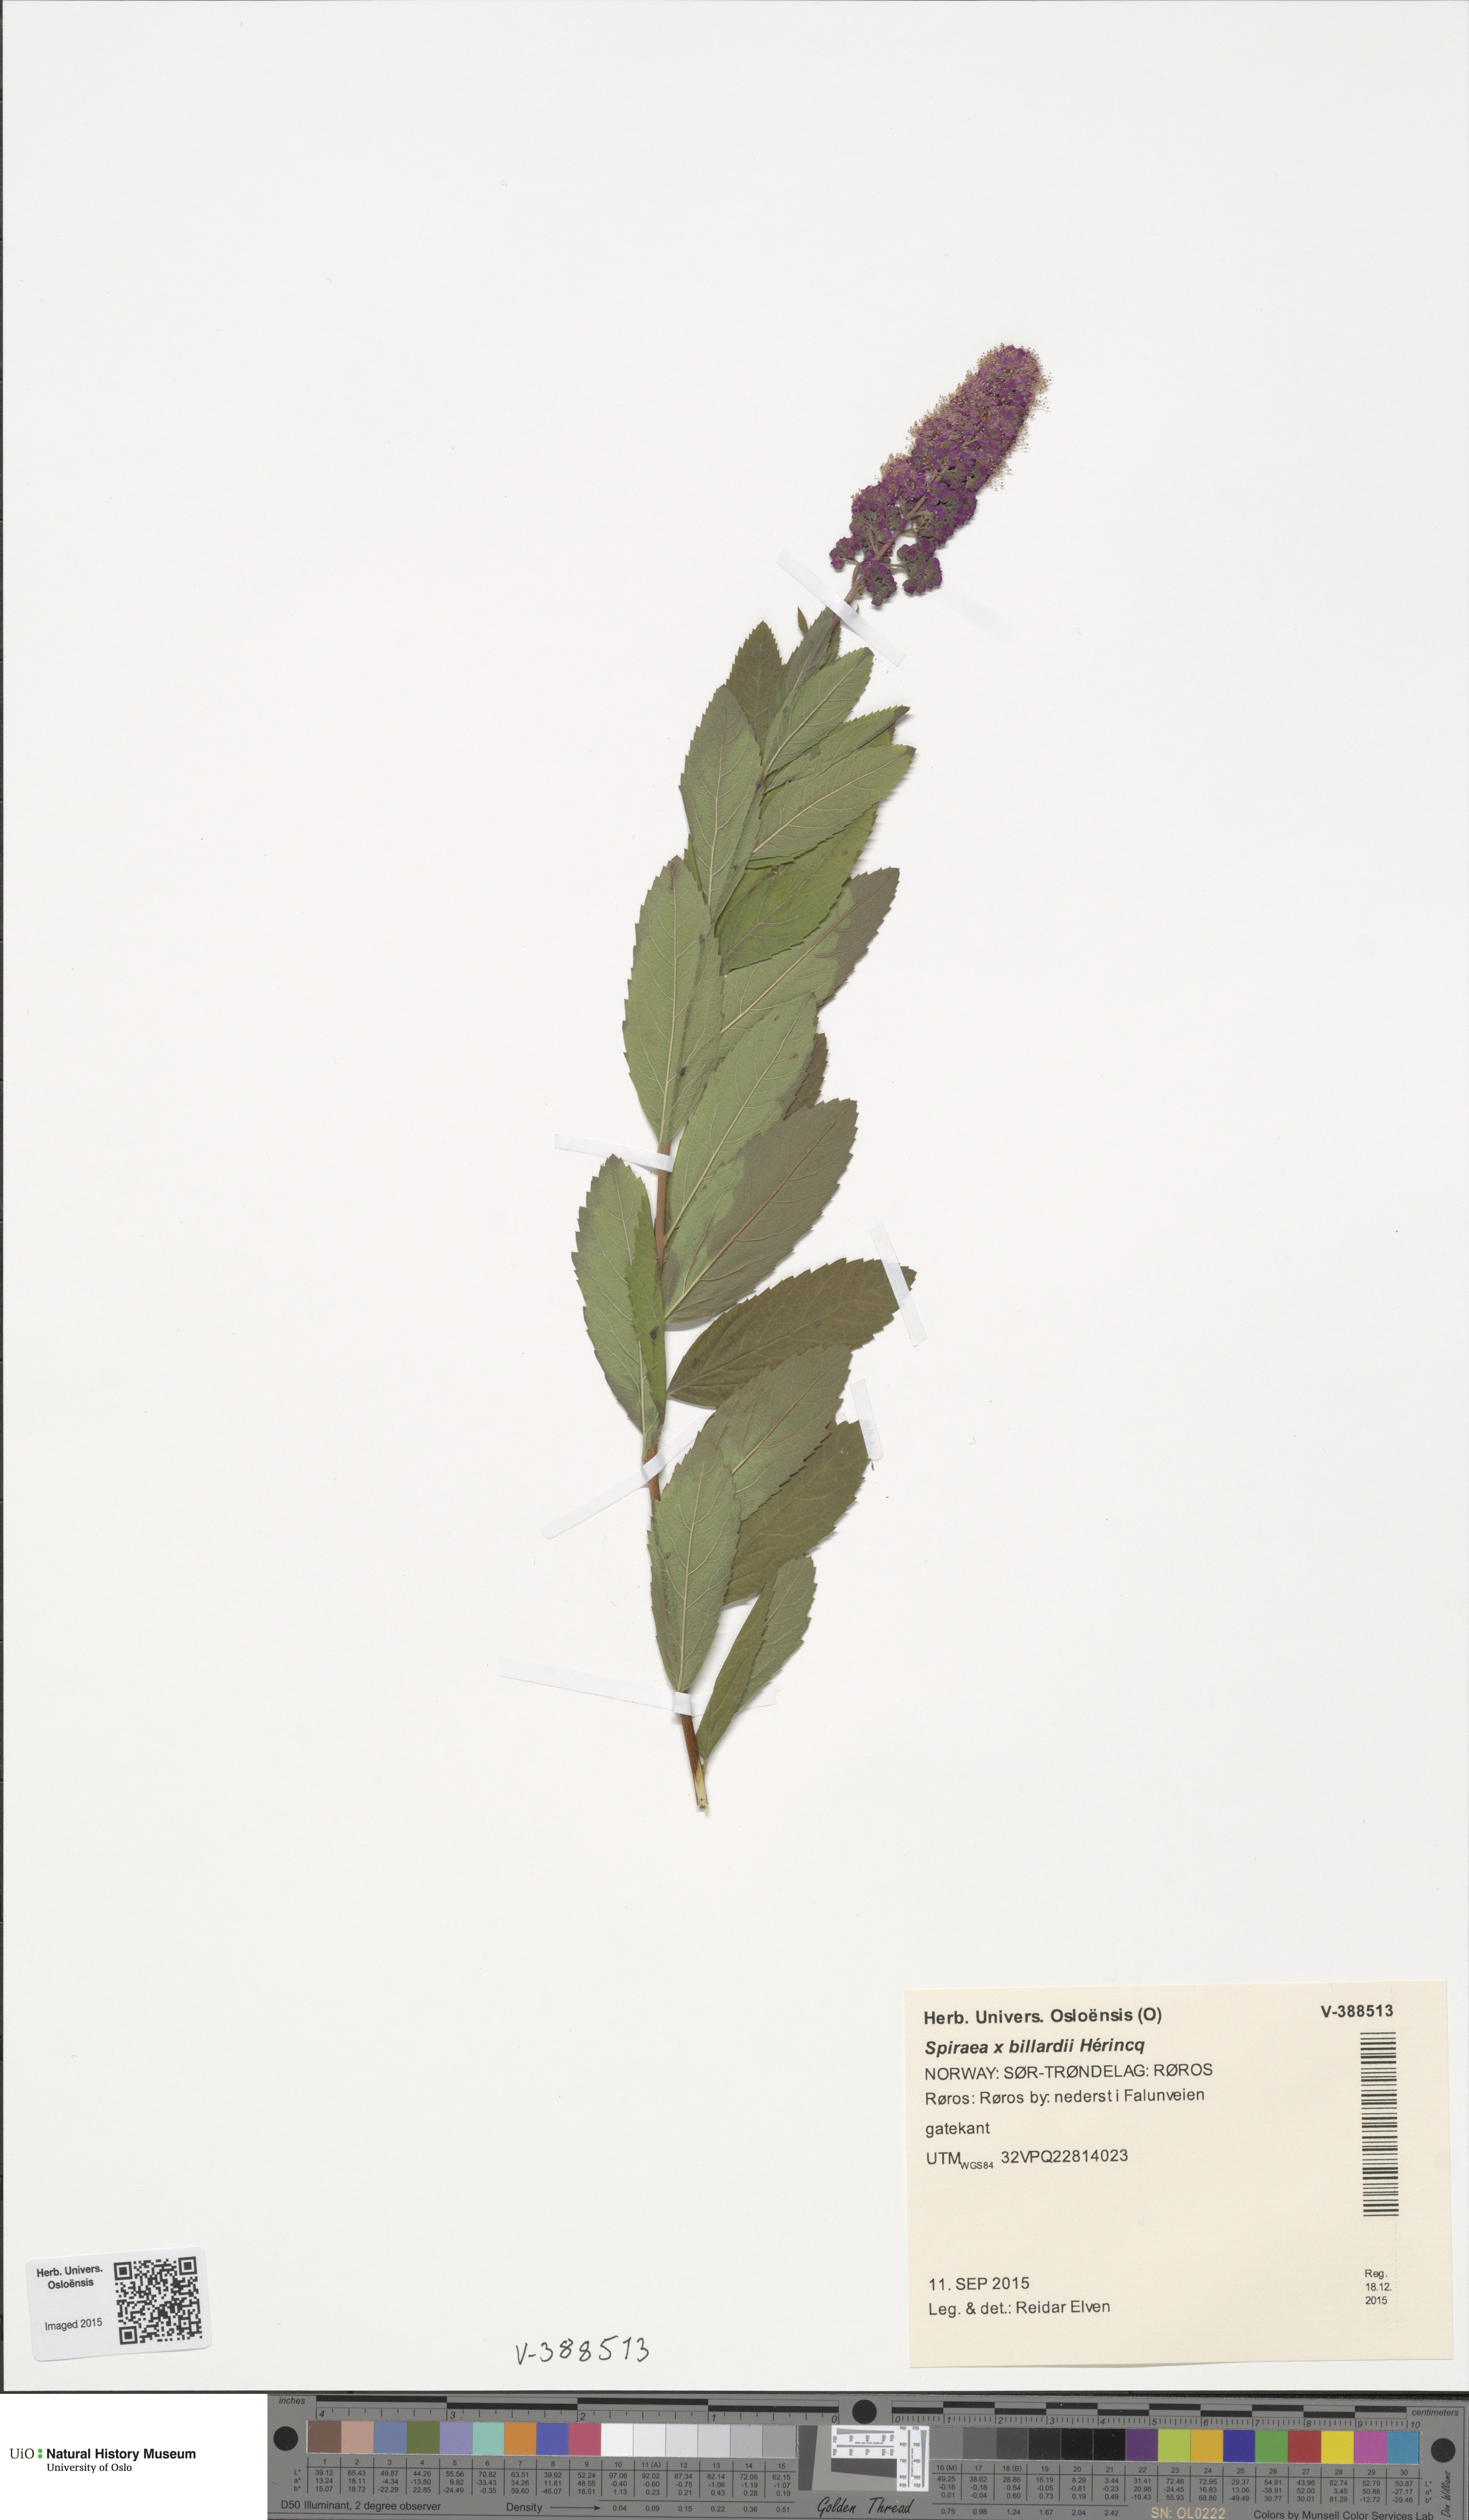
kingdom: Plantae
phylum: Tracheophyta
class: Magnoliopsida
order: Rosales
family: Rosaceae
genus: Spiraea
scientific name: Spiraea billardii
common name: Billard's bridewort
